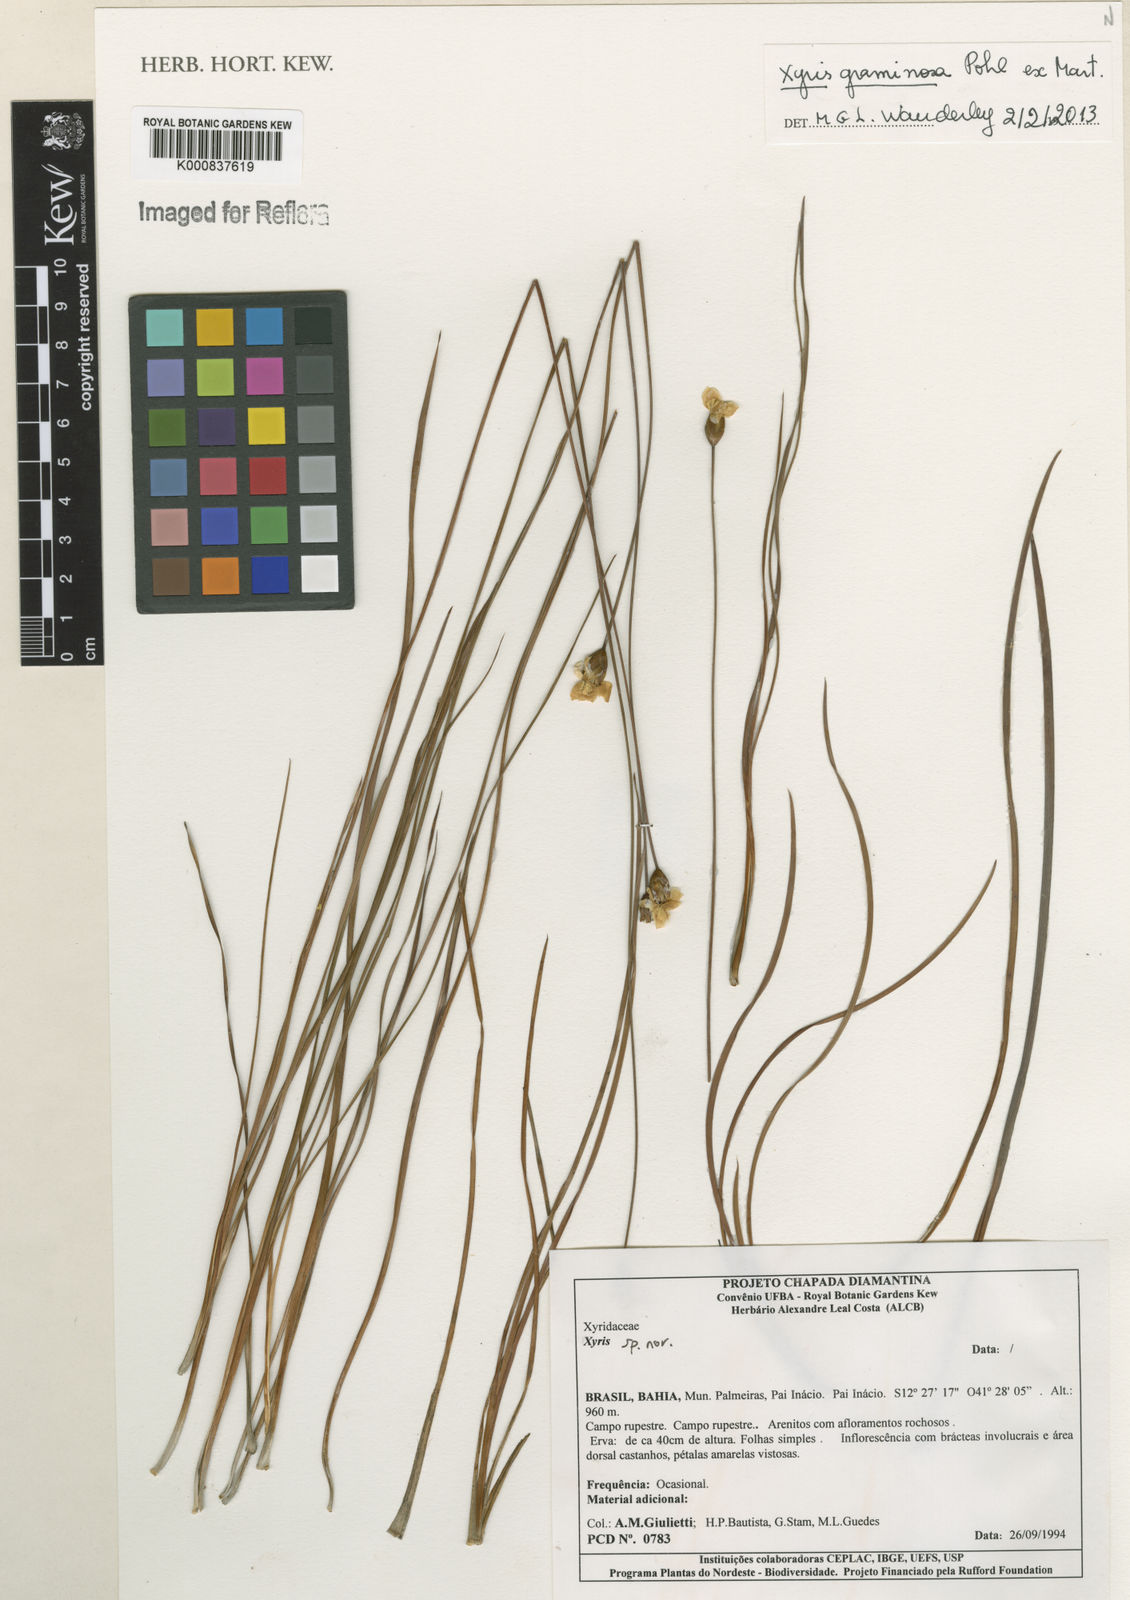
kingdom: Plantae
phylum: Tracheophyta
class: Liliopsida
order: Poales
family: Xyridaceae
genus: Xyris
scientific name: Xyris graminosa
